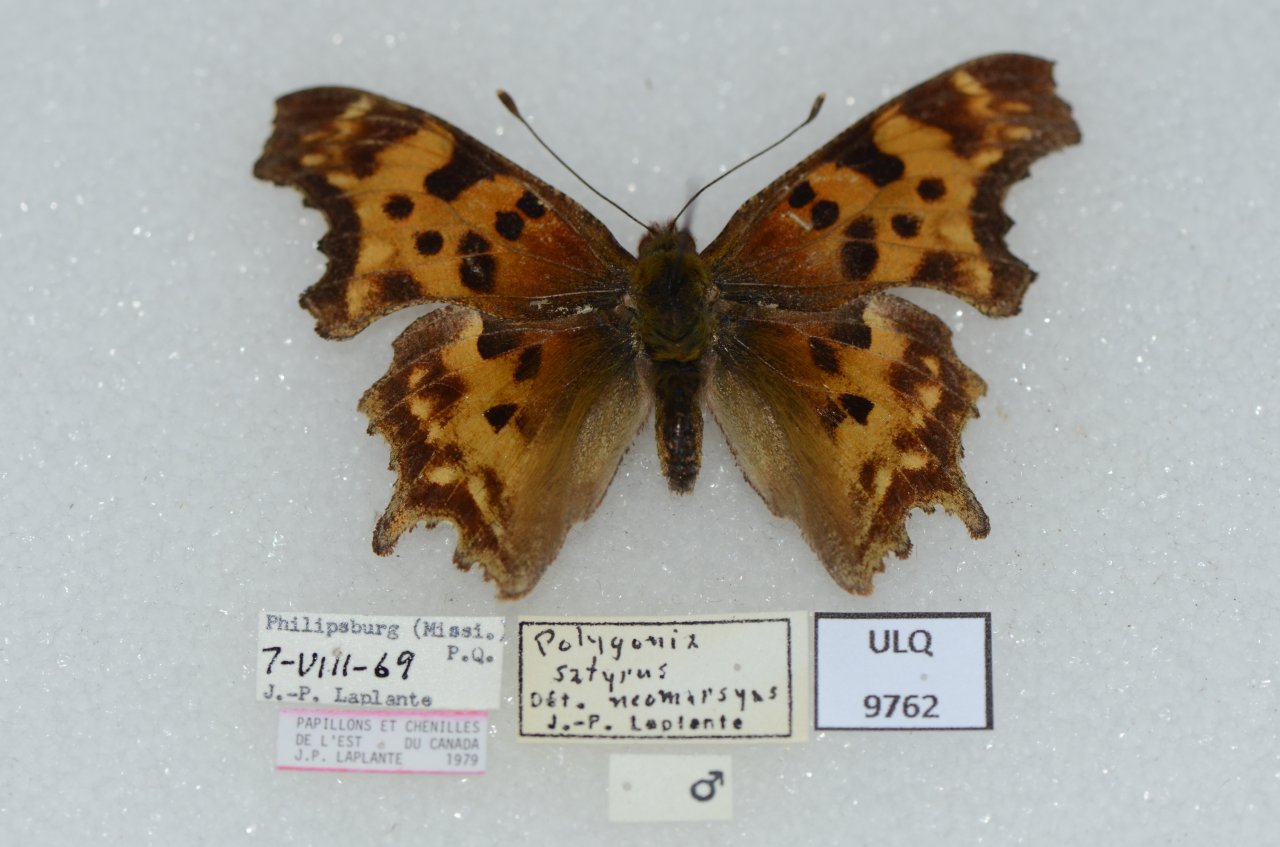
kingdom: Animalia
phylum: Arthropoda
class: Insecta
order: Lepidoptera
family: Nymphalidae
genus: Polygonia
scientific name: Polygonia satyrus
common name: Satyr Comma
